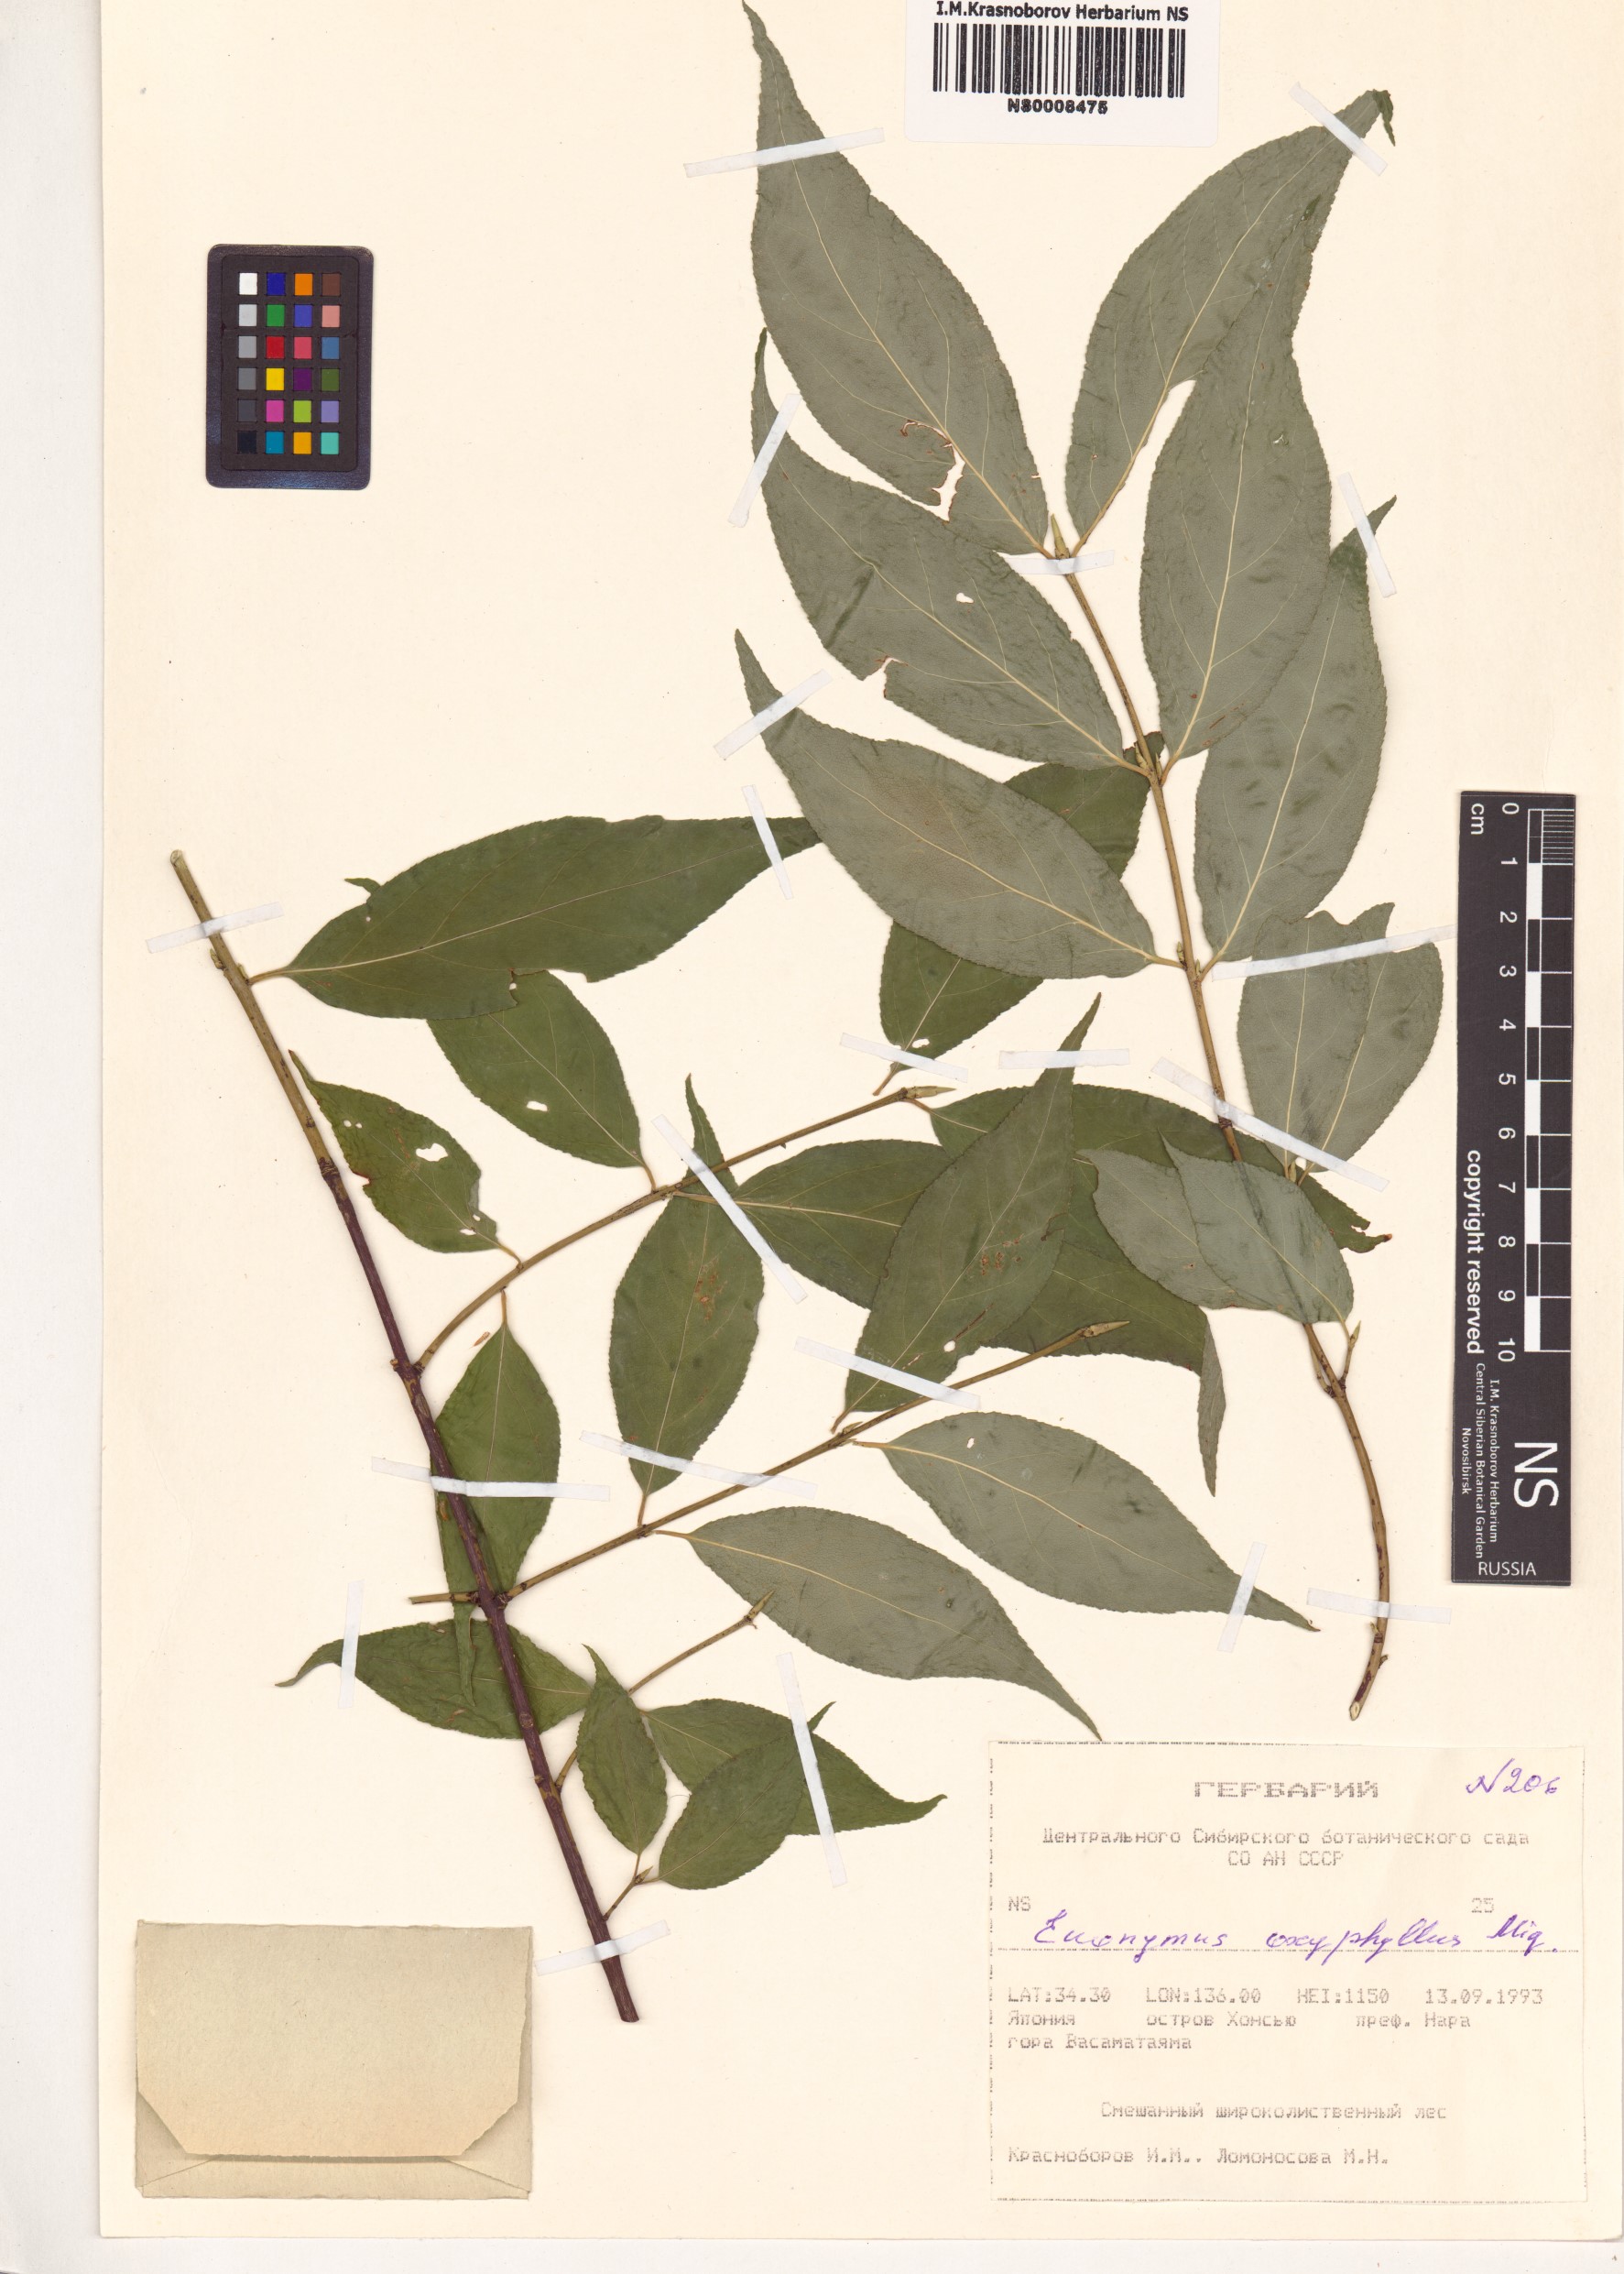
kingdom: Plantae
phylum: Tracheophyta
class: Magnoliopsida
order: Celastrales
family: Celastraceae
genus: Euonymus
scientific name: Euonymus oxyphyllus
